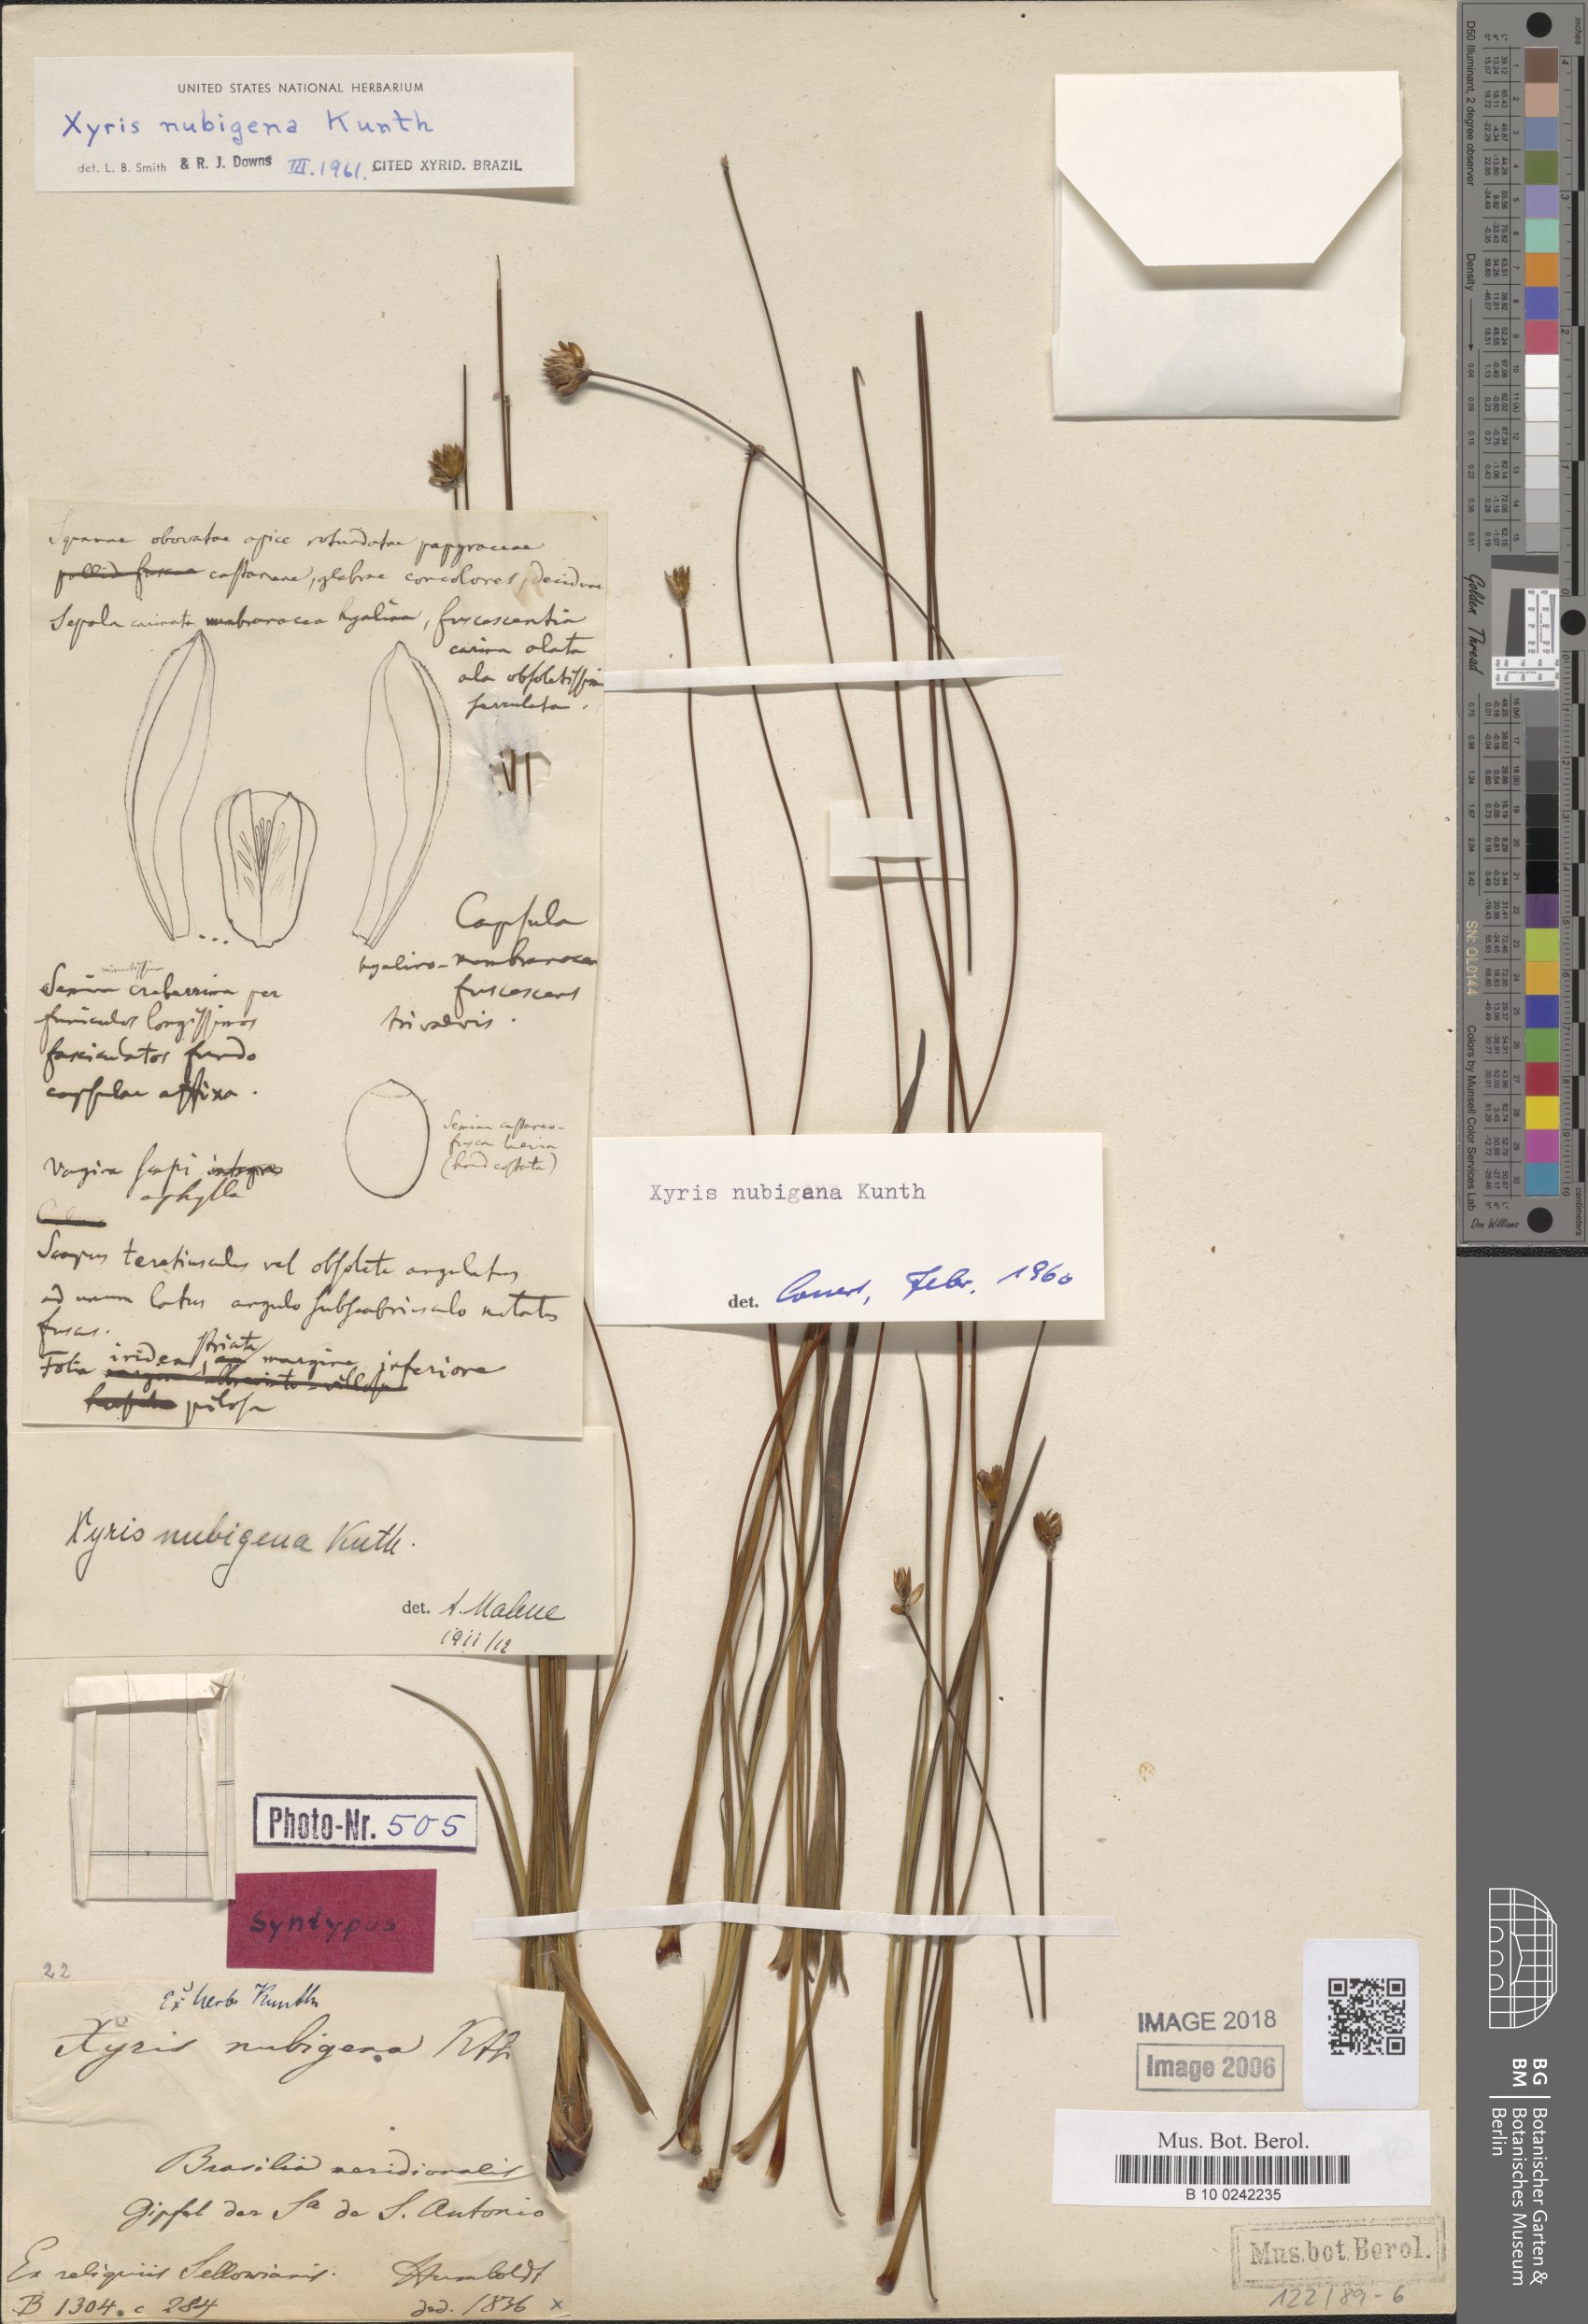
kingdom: Plantae
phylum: Tracheophyta
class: Liliopsida
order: Poales
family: Xyridaceae
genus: Xyris
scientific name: Xyris nubigena
